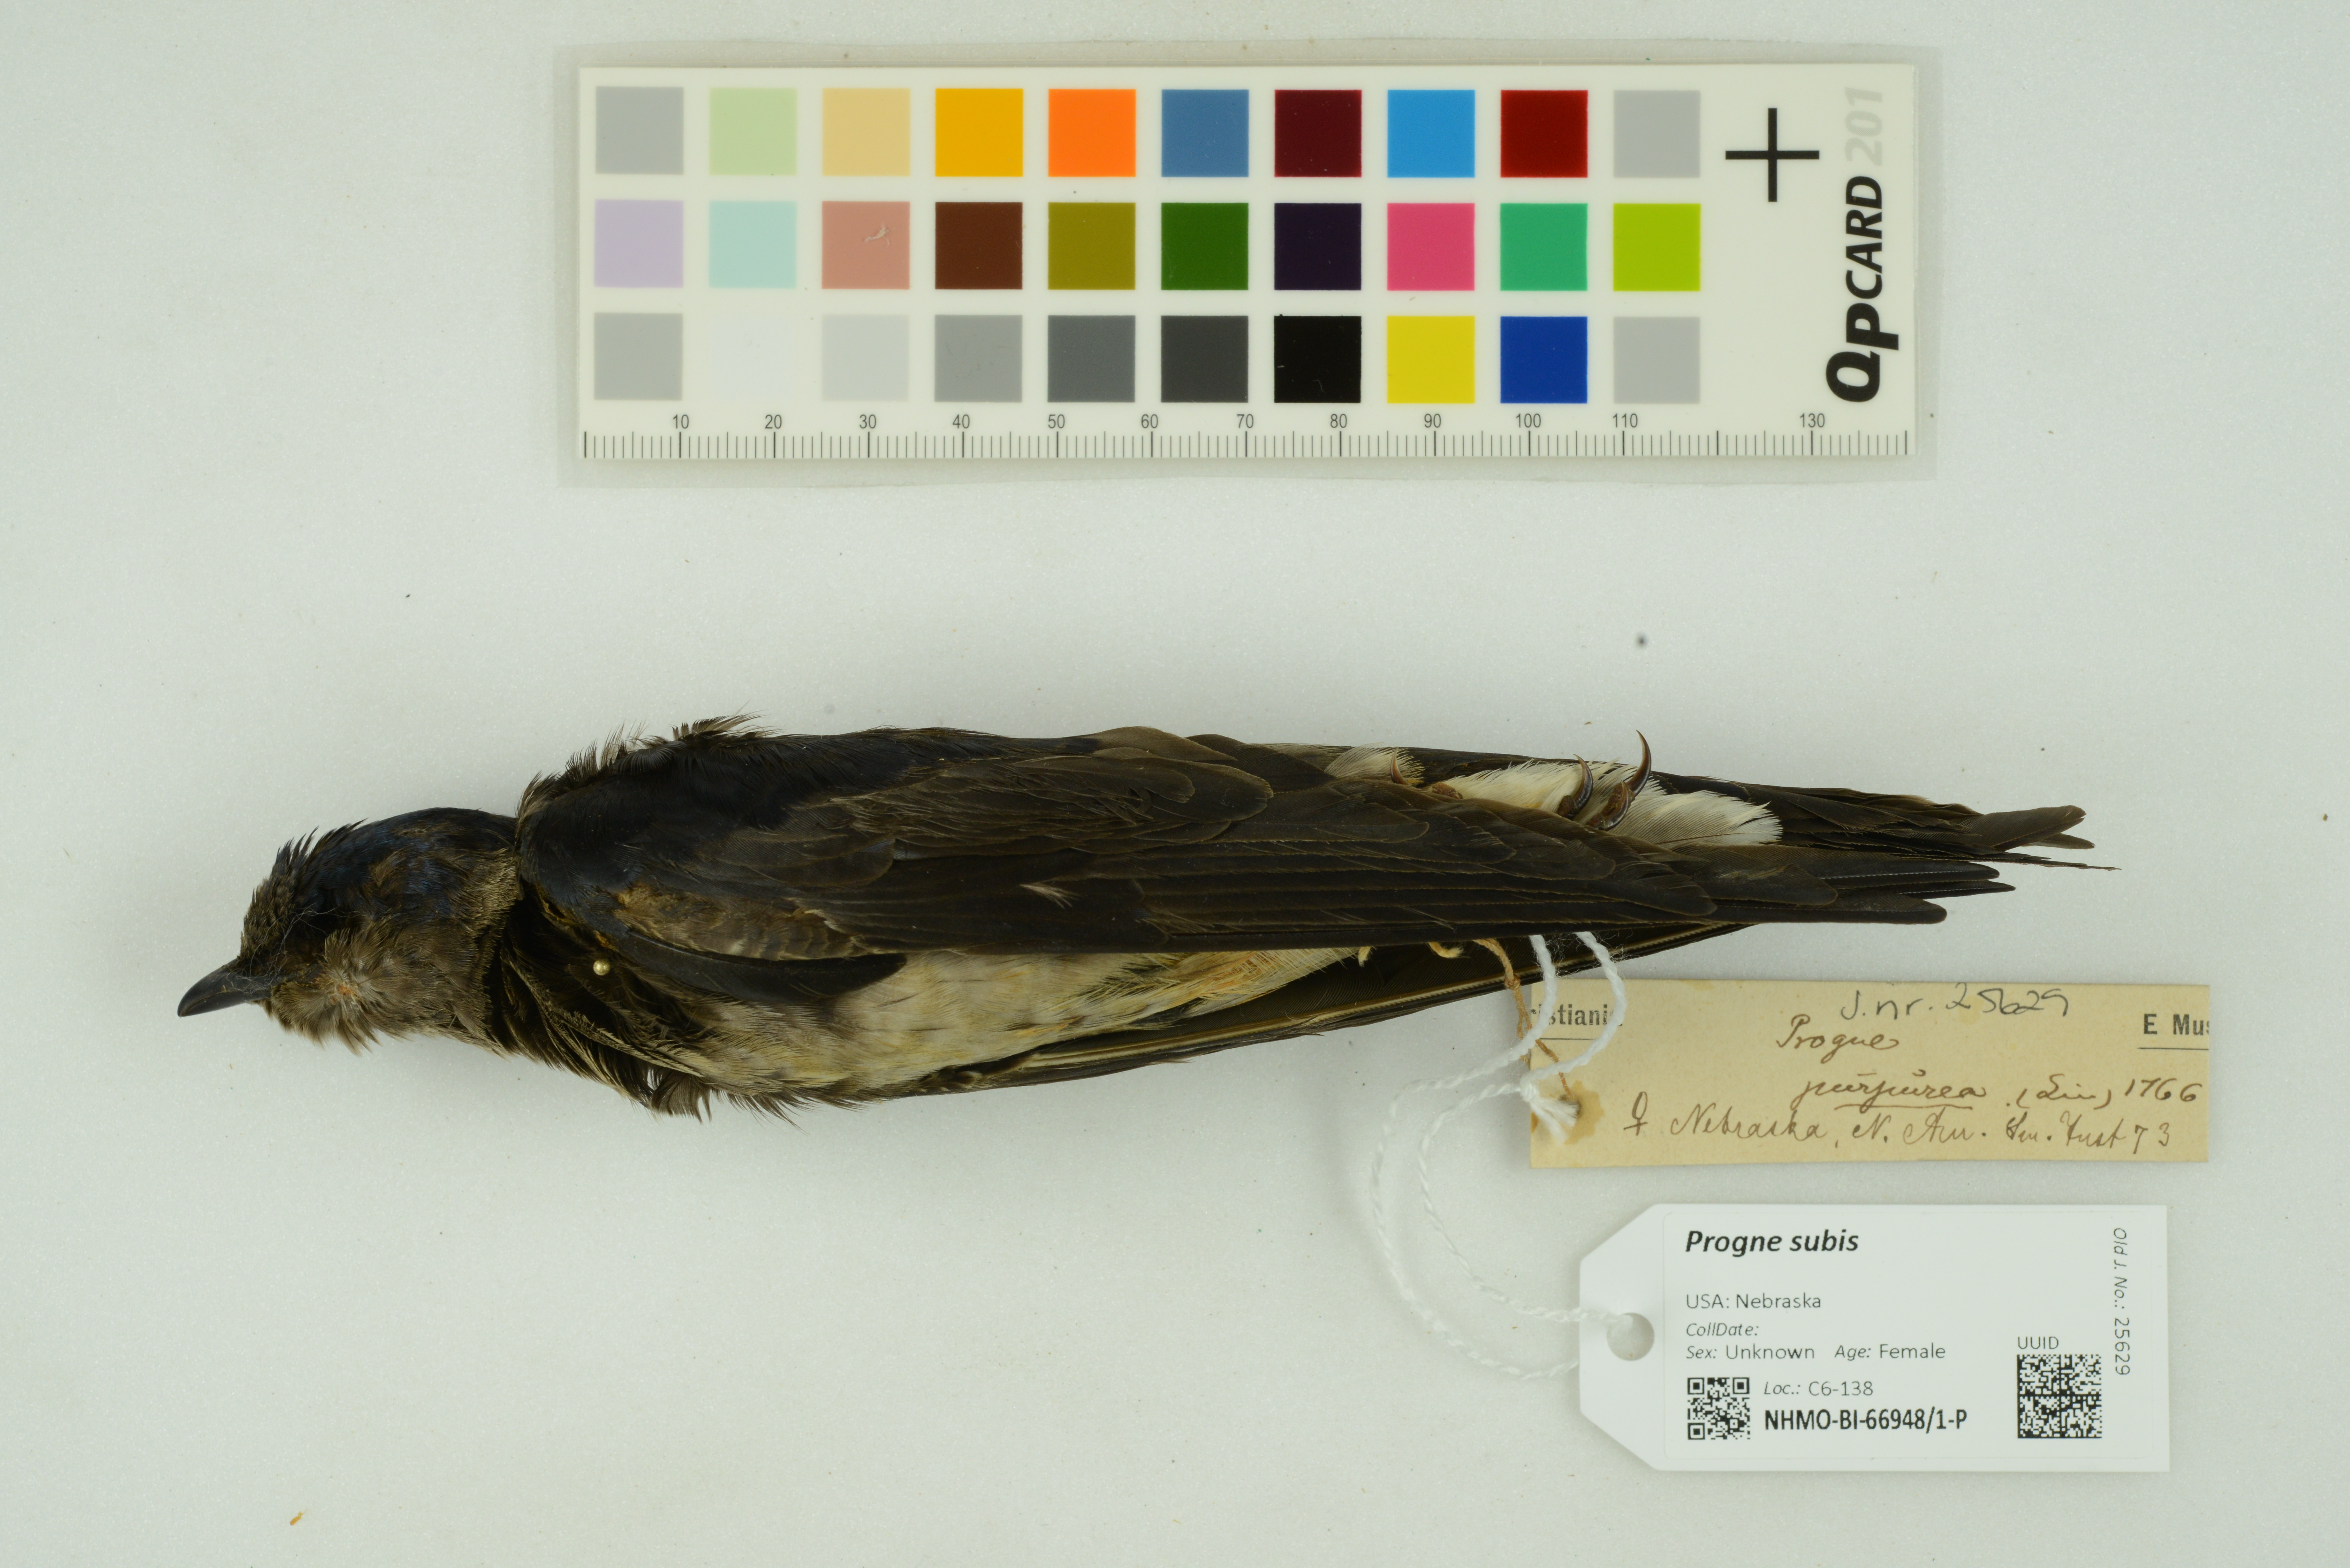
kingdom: Animalia
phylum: Chordata
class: Aves
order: Passeriformes
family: Hirundinidae
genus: Progne
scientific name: Progne subis
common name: Purple martin
